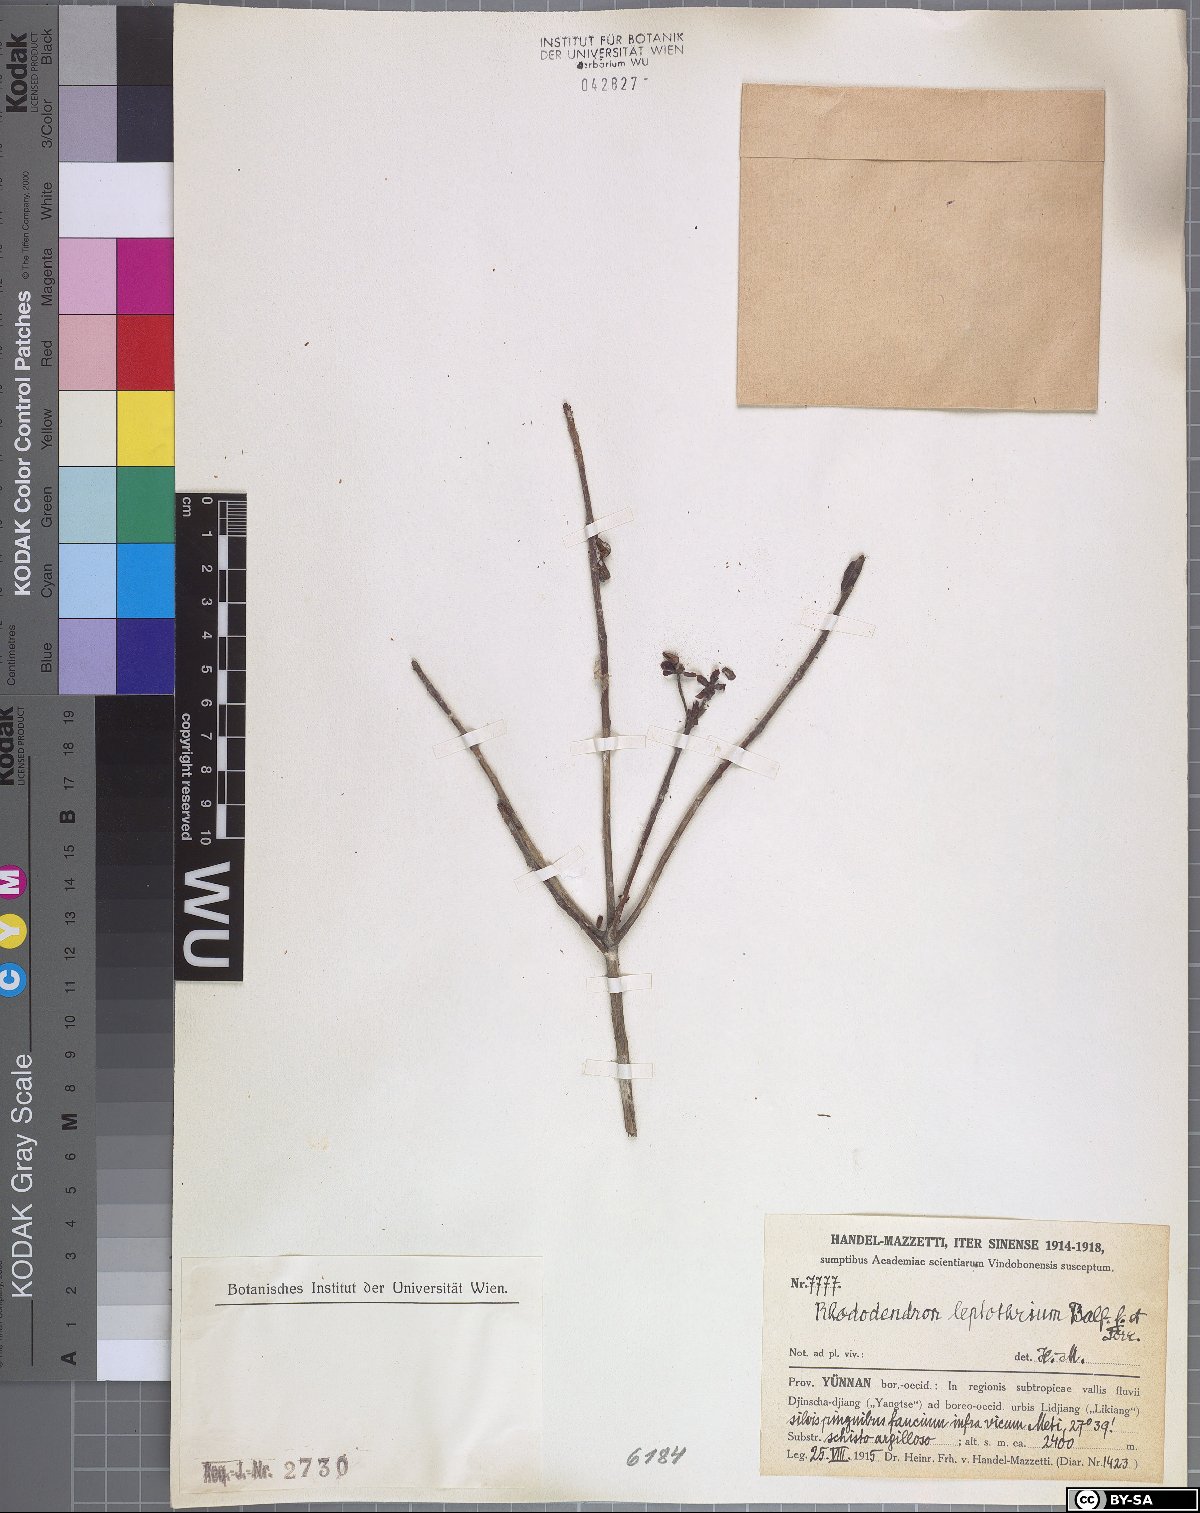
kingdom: Plantae
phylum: Tracheophyta
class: Magnoliopsida
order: Ericales
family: Ericaceae
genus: Rhododendron
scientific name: Rhododendron leptothrium
